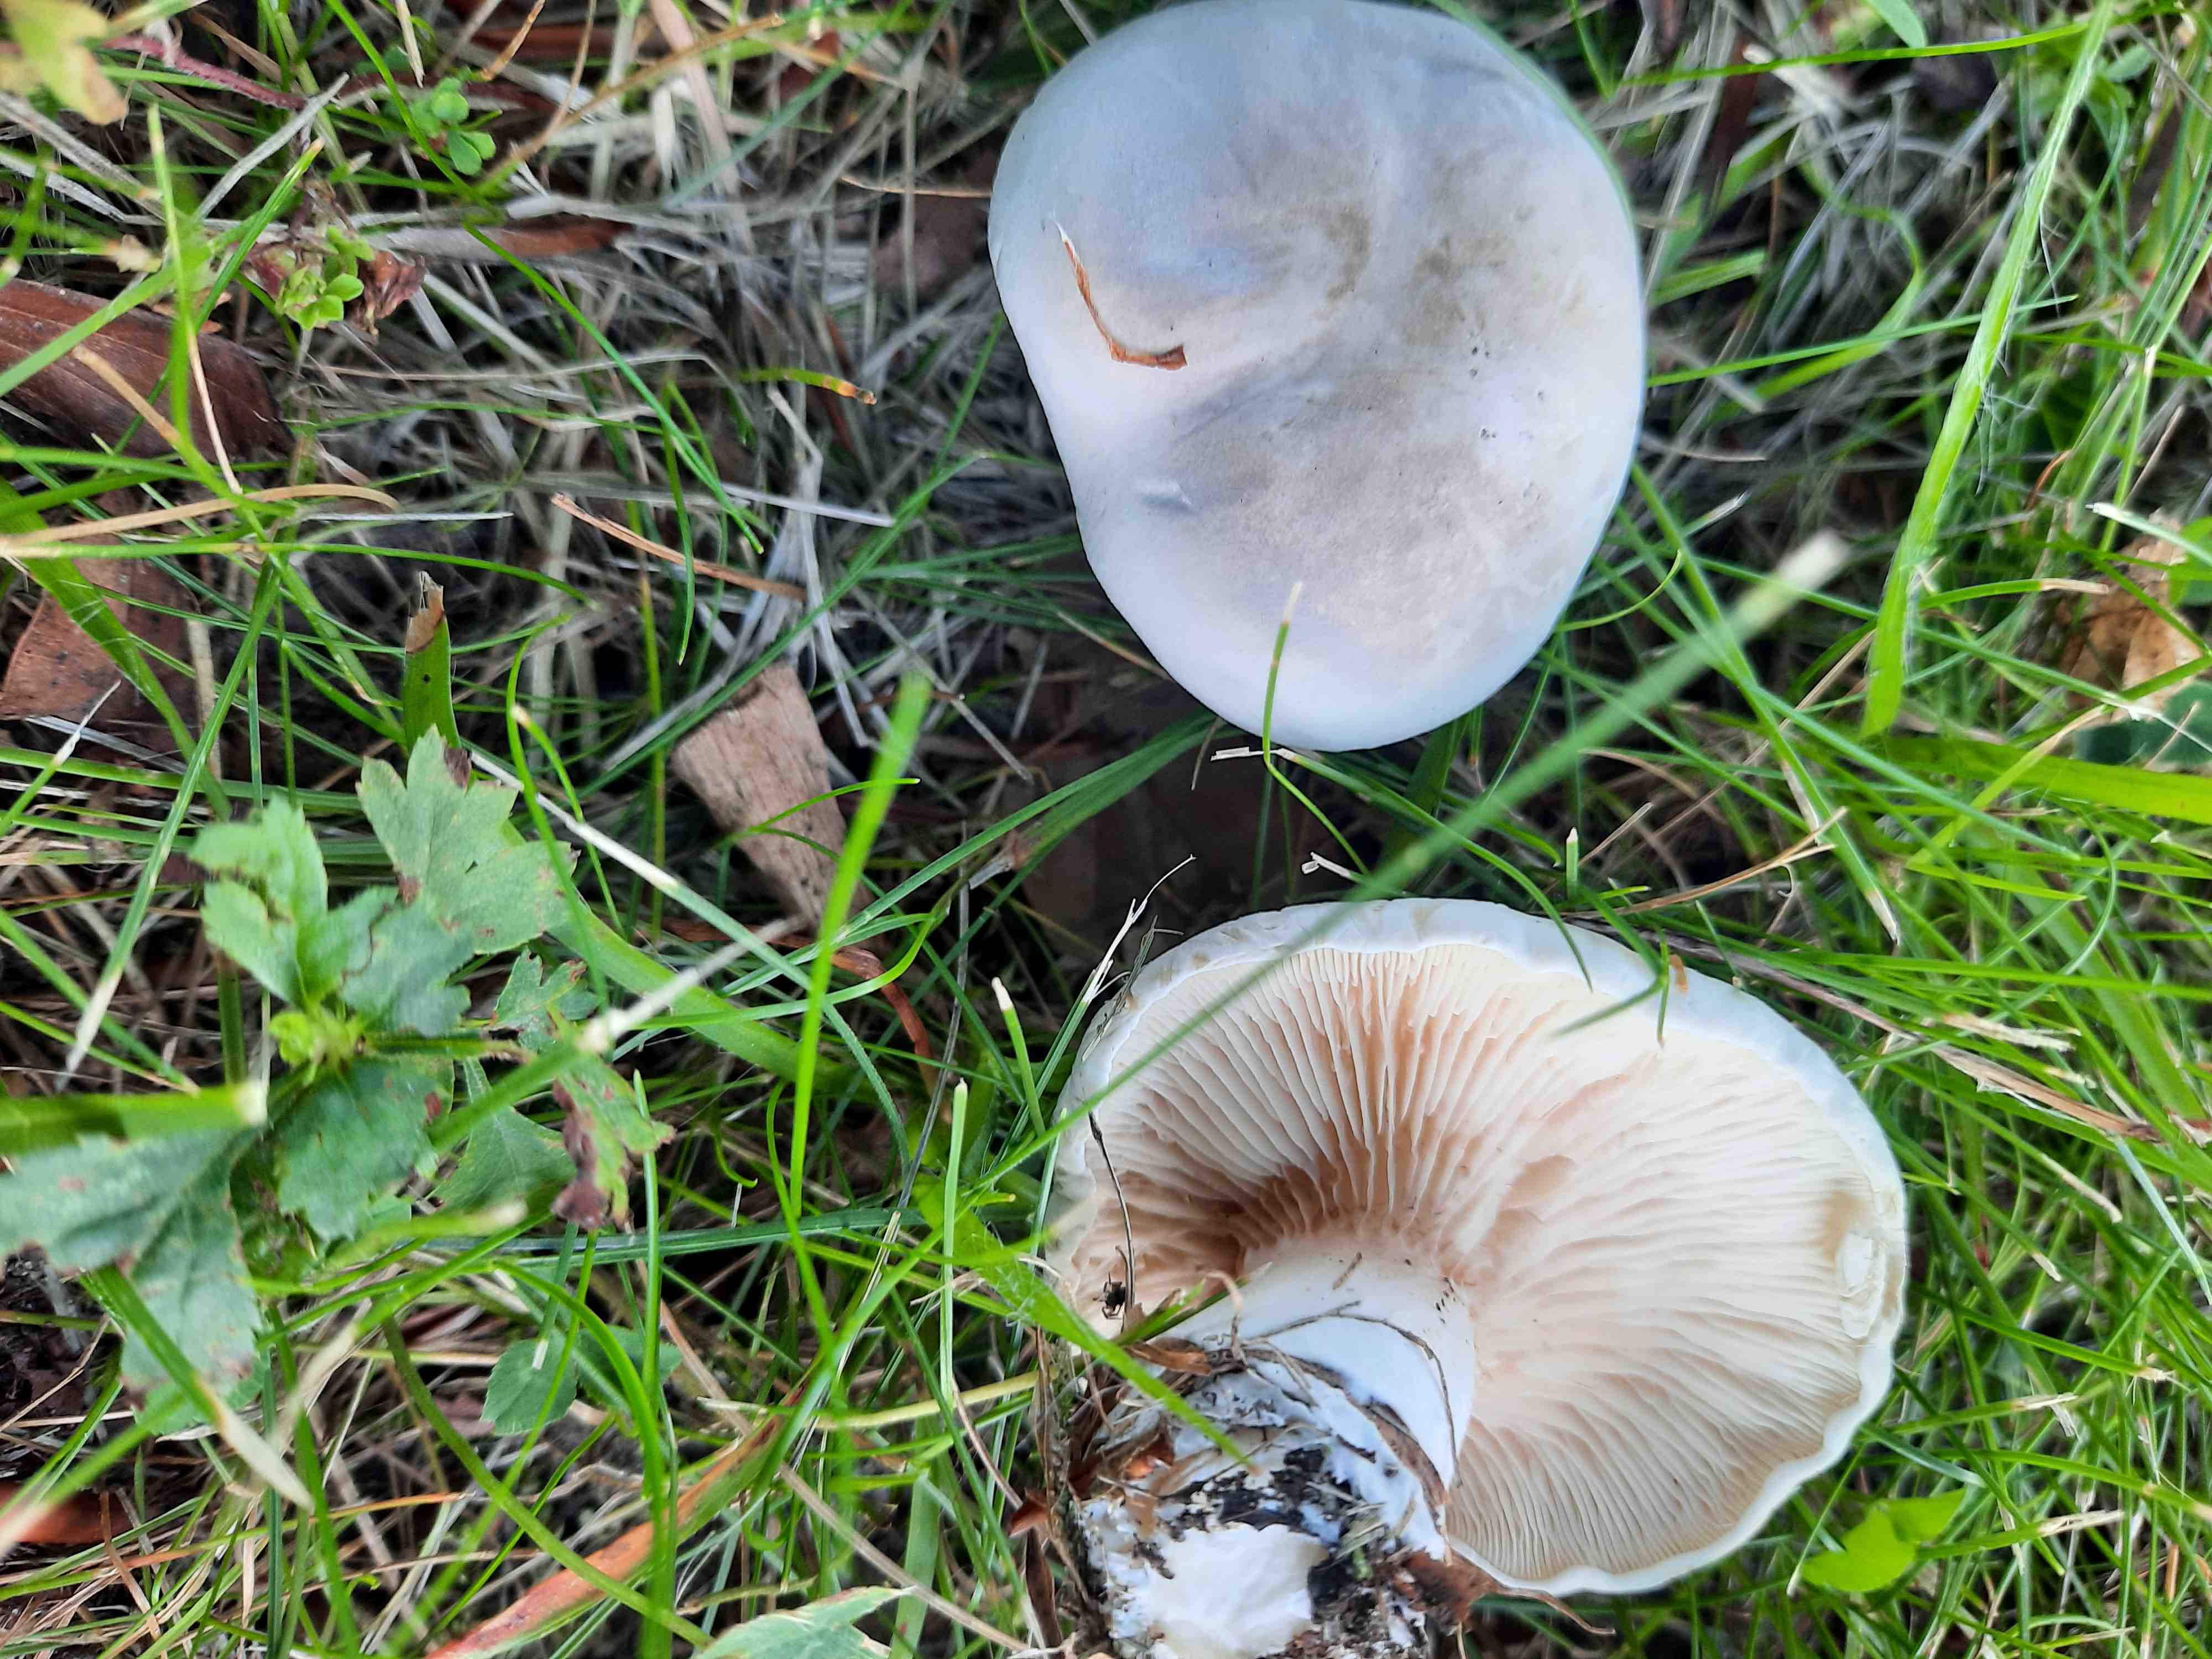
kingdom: Fungi
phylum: Basidiomycota
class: Agaricomycetes
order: Agaricales
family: Entolomataceae
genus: Clitopilus
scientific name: Clitopilus prunulus
